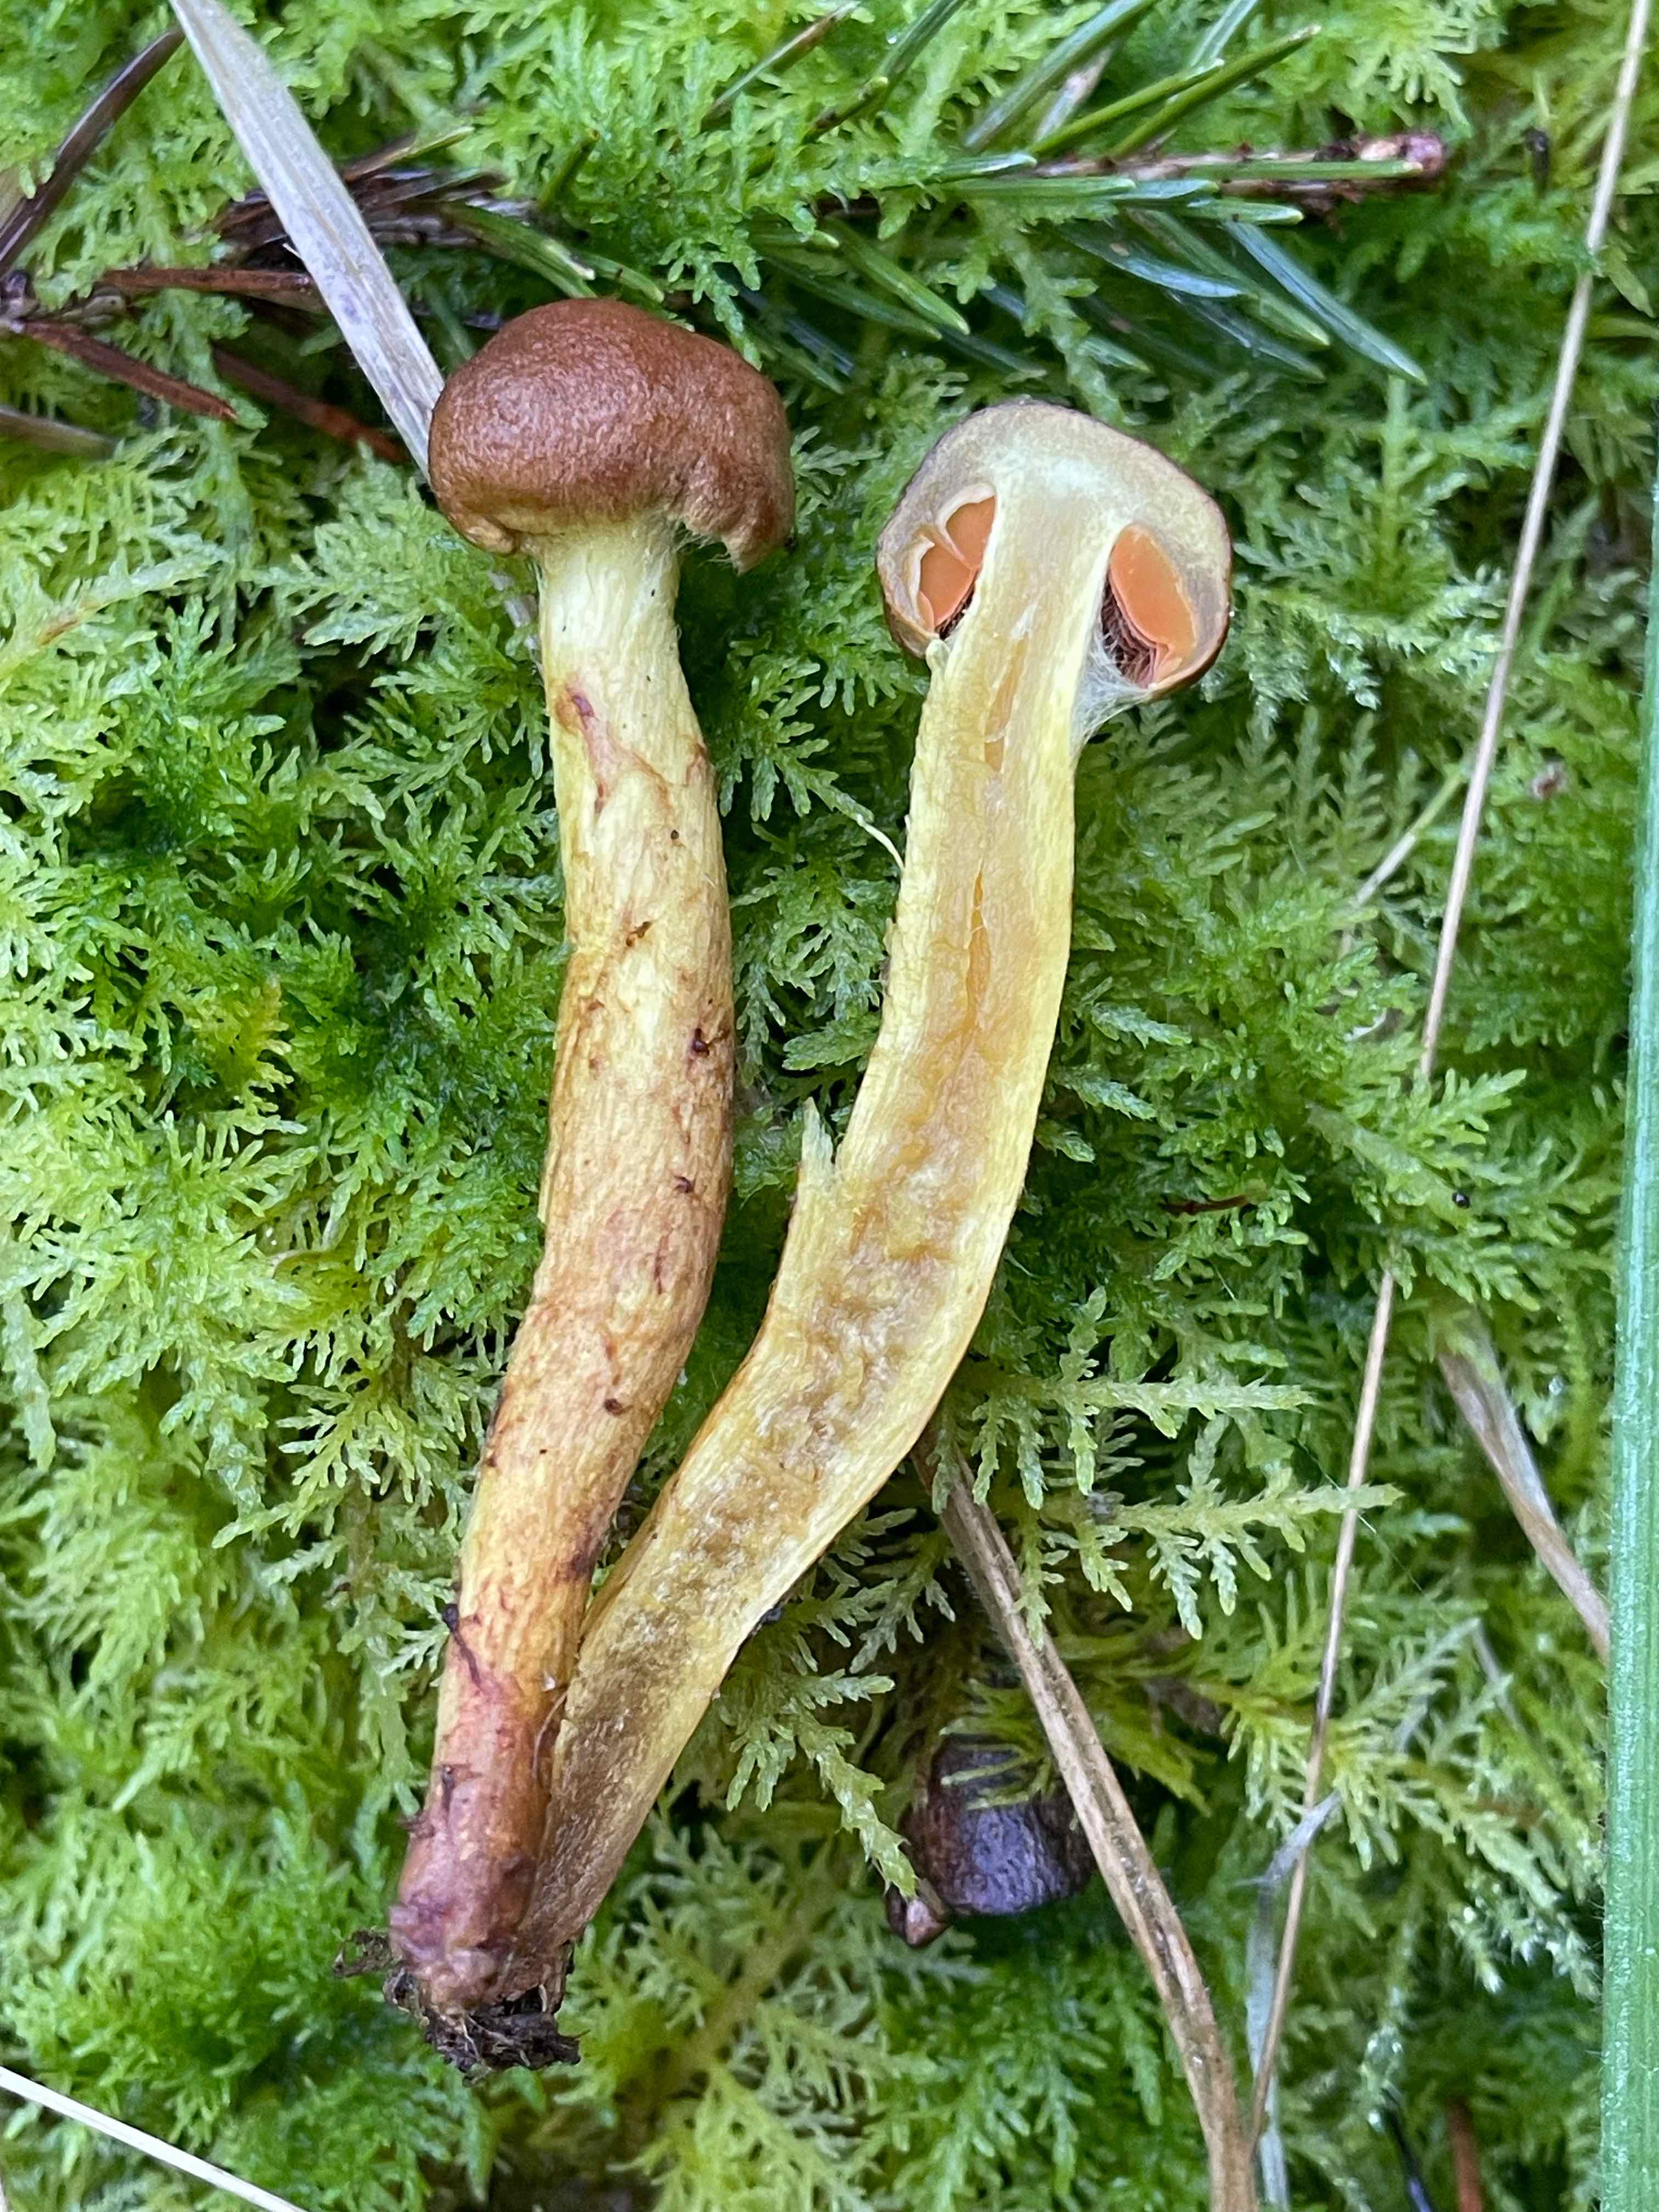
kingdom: Fungi
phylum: Basidiomycota
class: Agaricomycetes
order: Agaricales
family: Cortinariaceae
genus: Cortinarius
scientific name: Cortinarius malicorius
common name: grønkødet slørhat
